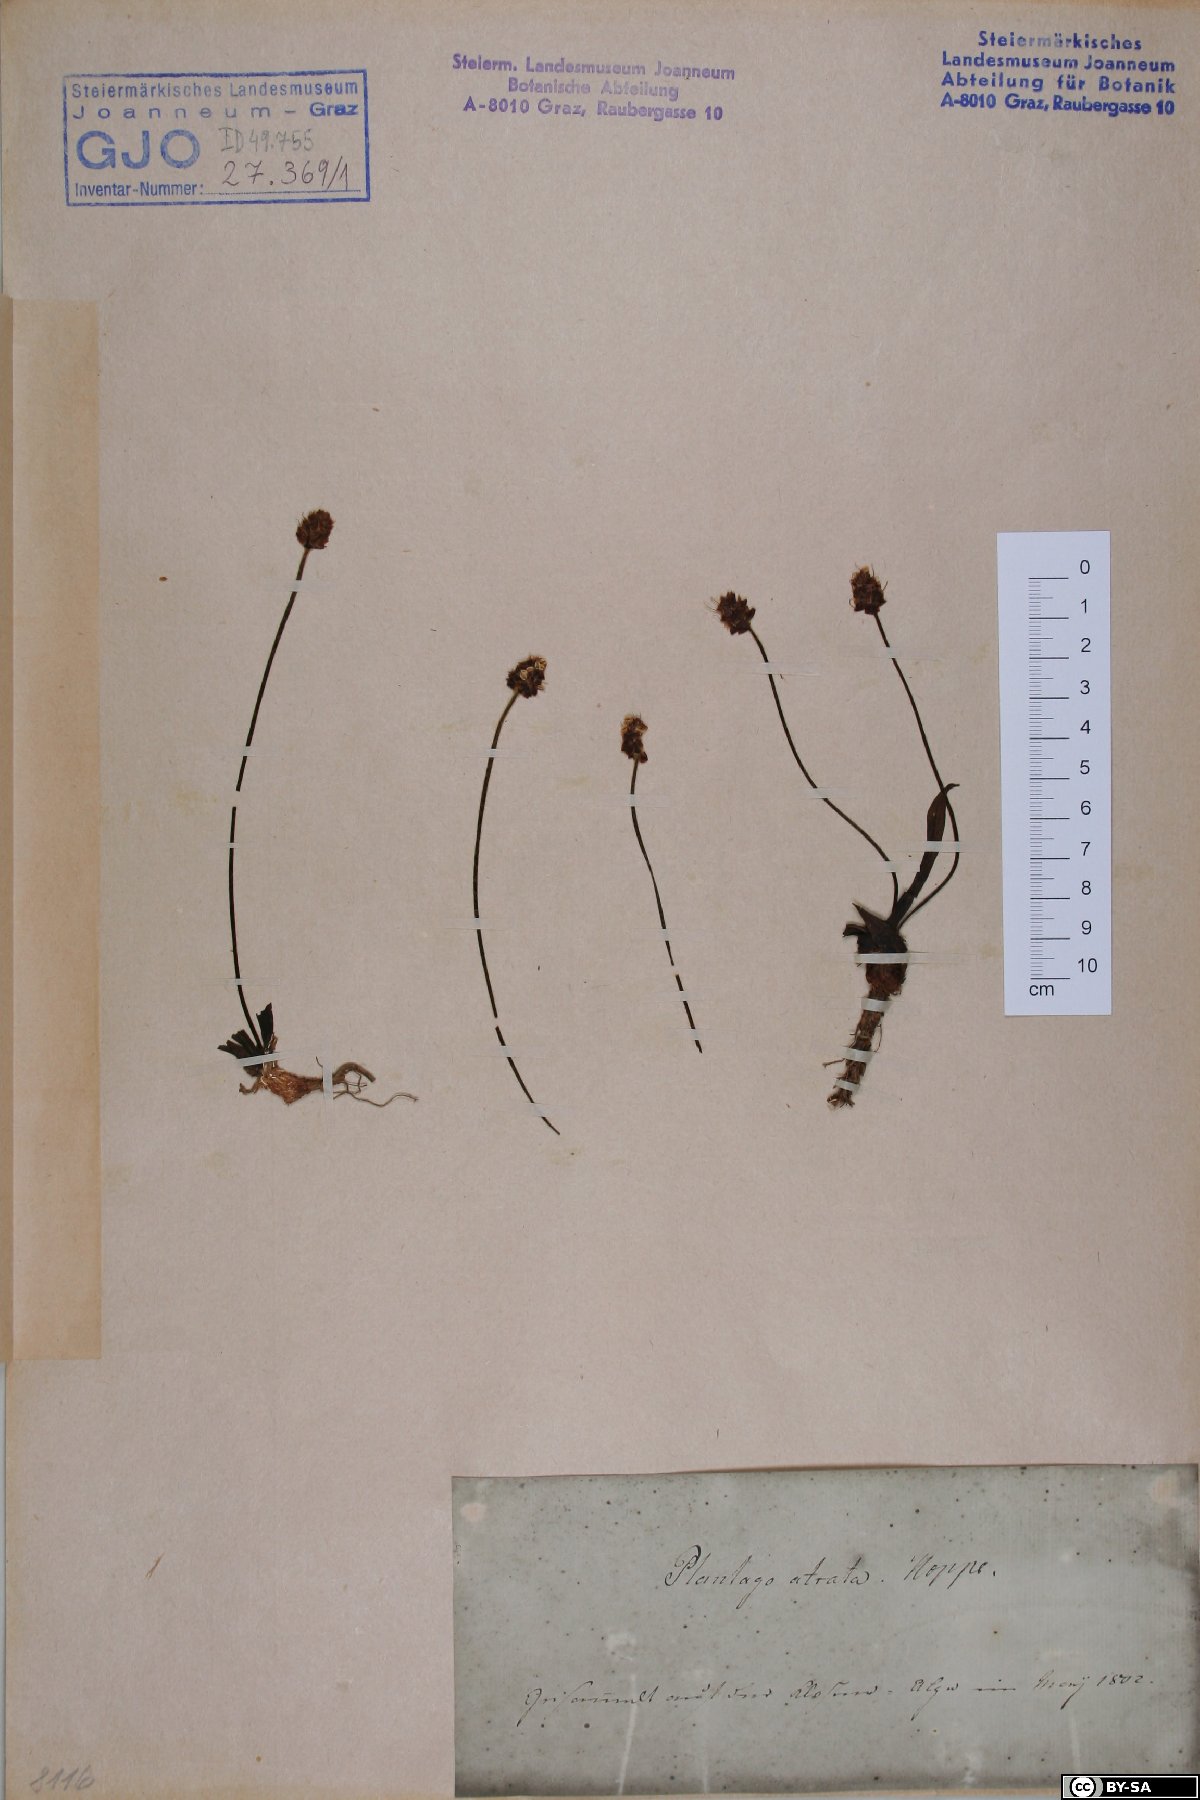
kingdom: Plantae
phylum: Tracheophyta
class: Magnoliopsida
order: Lamiales
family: Plantaginaceae
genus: Plantago
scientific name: Plantago atrata
